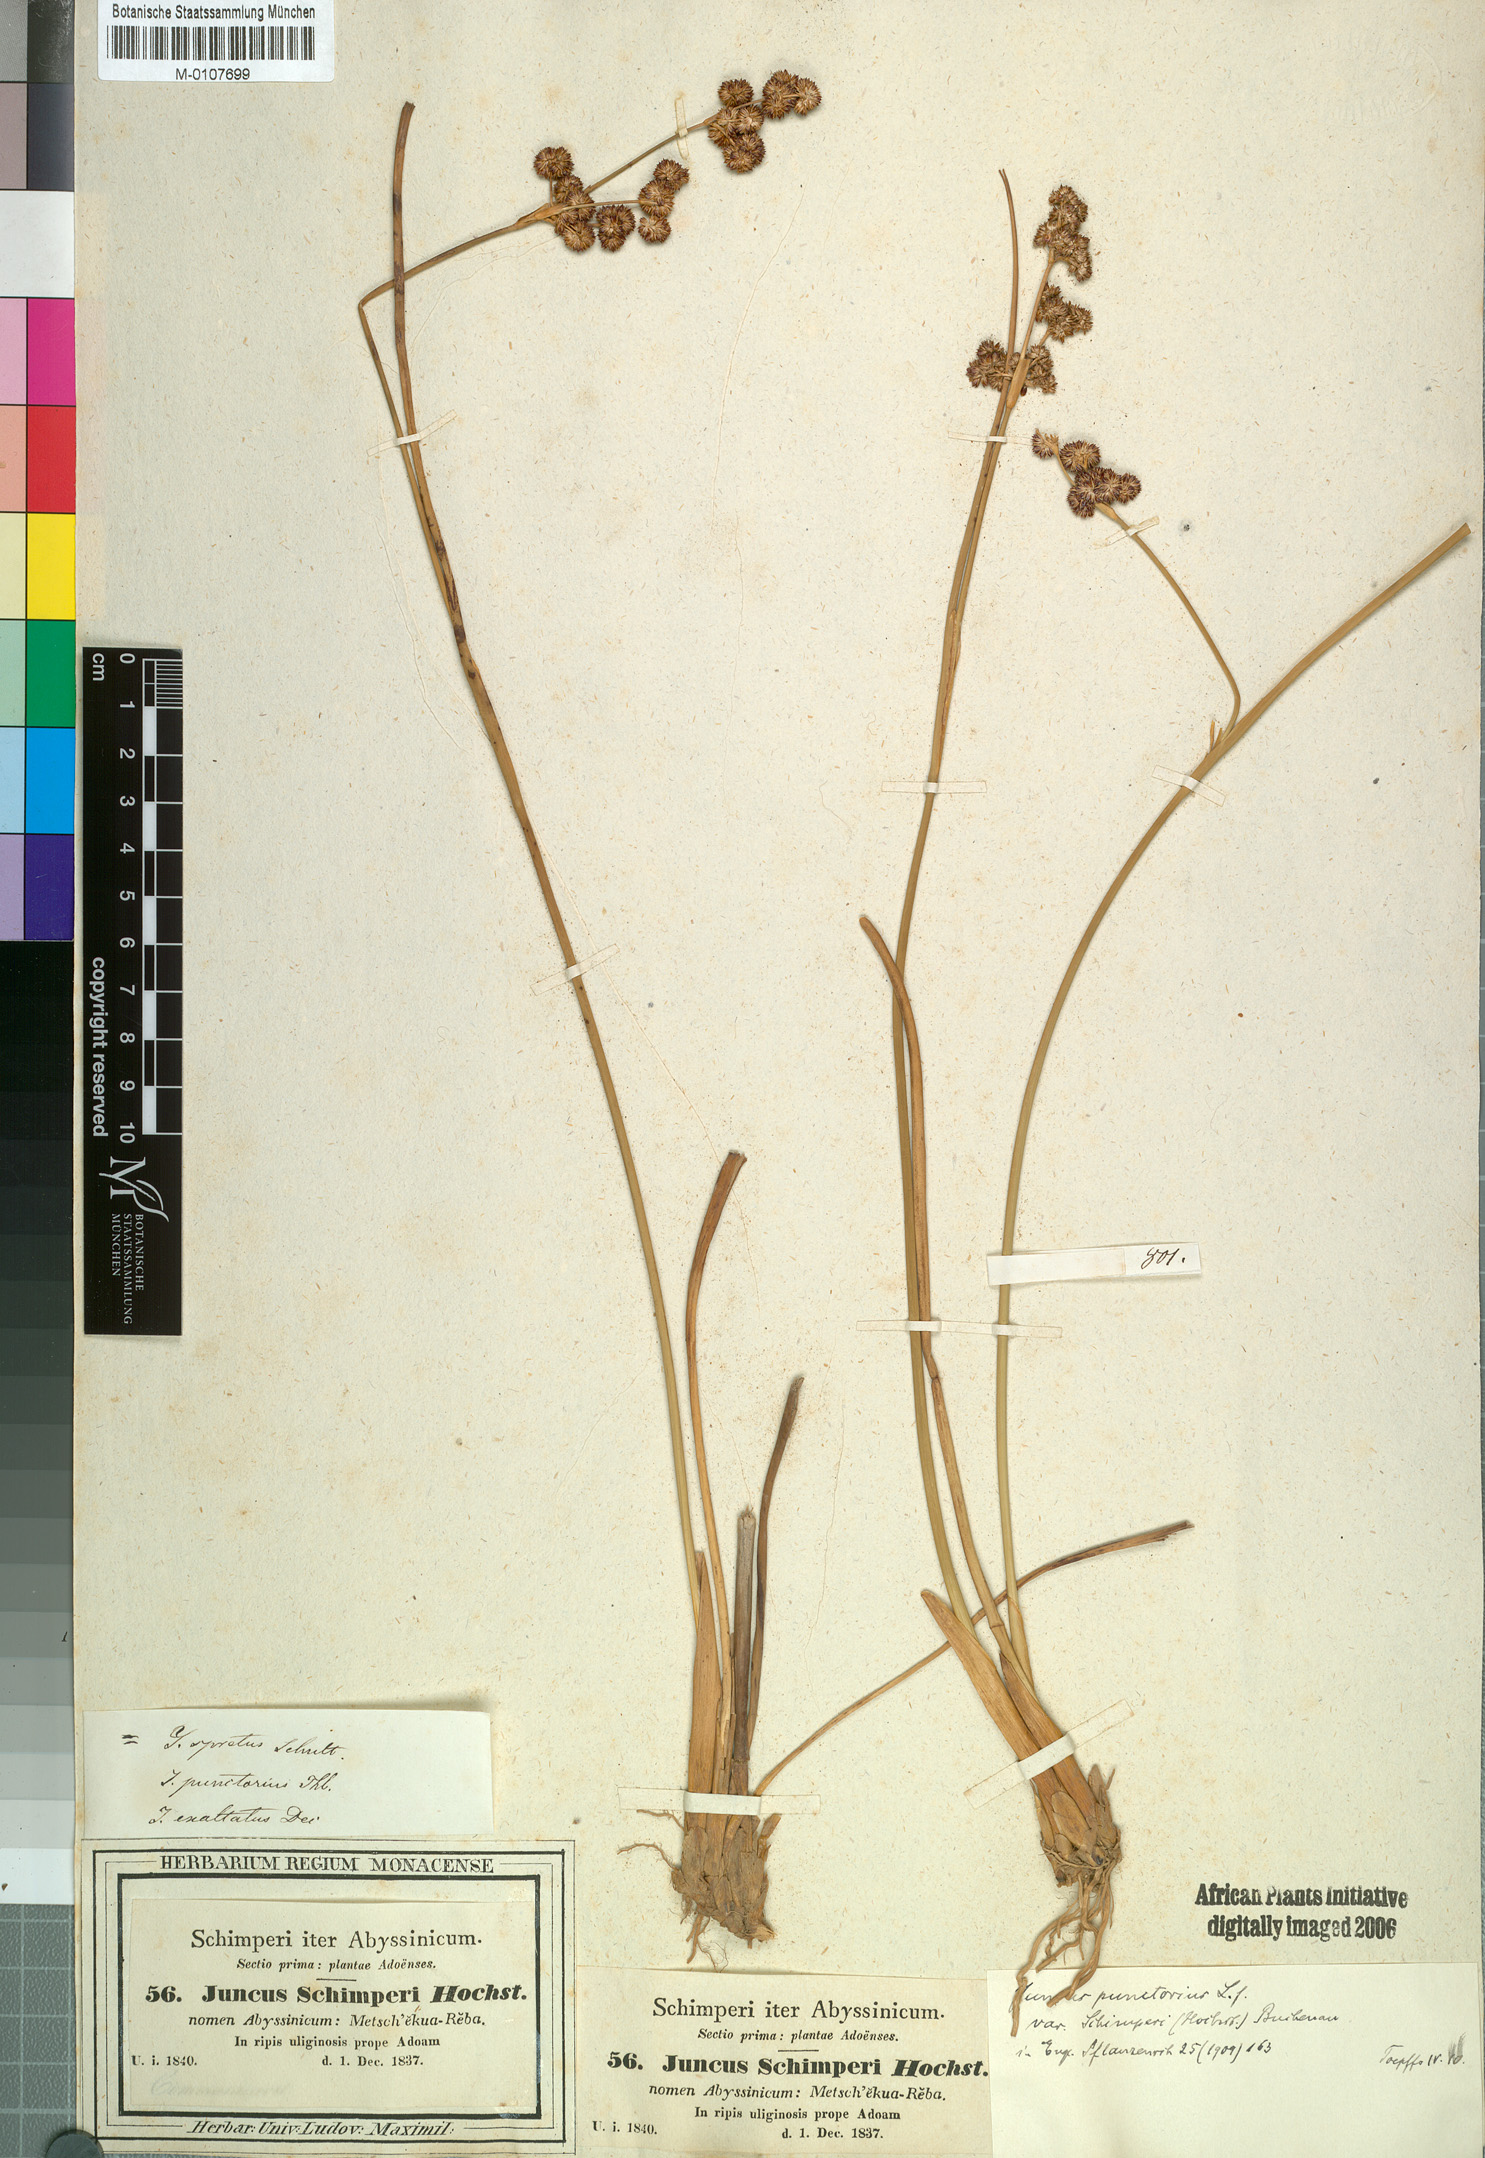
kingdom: Plantae
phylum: Tracheophyta
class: Liliopsida
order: Poales
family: Juncaceae
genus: Juncus
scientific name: Juncus punctorius
